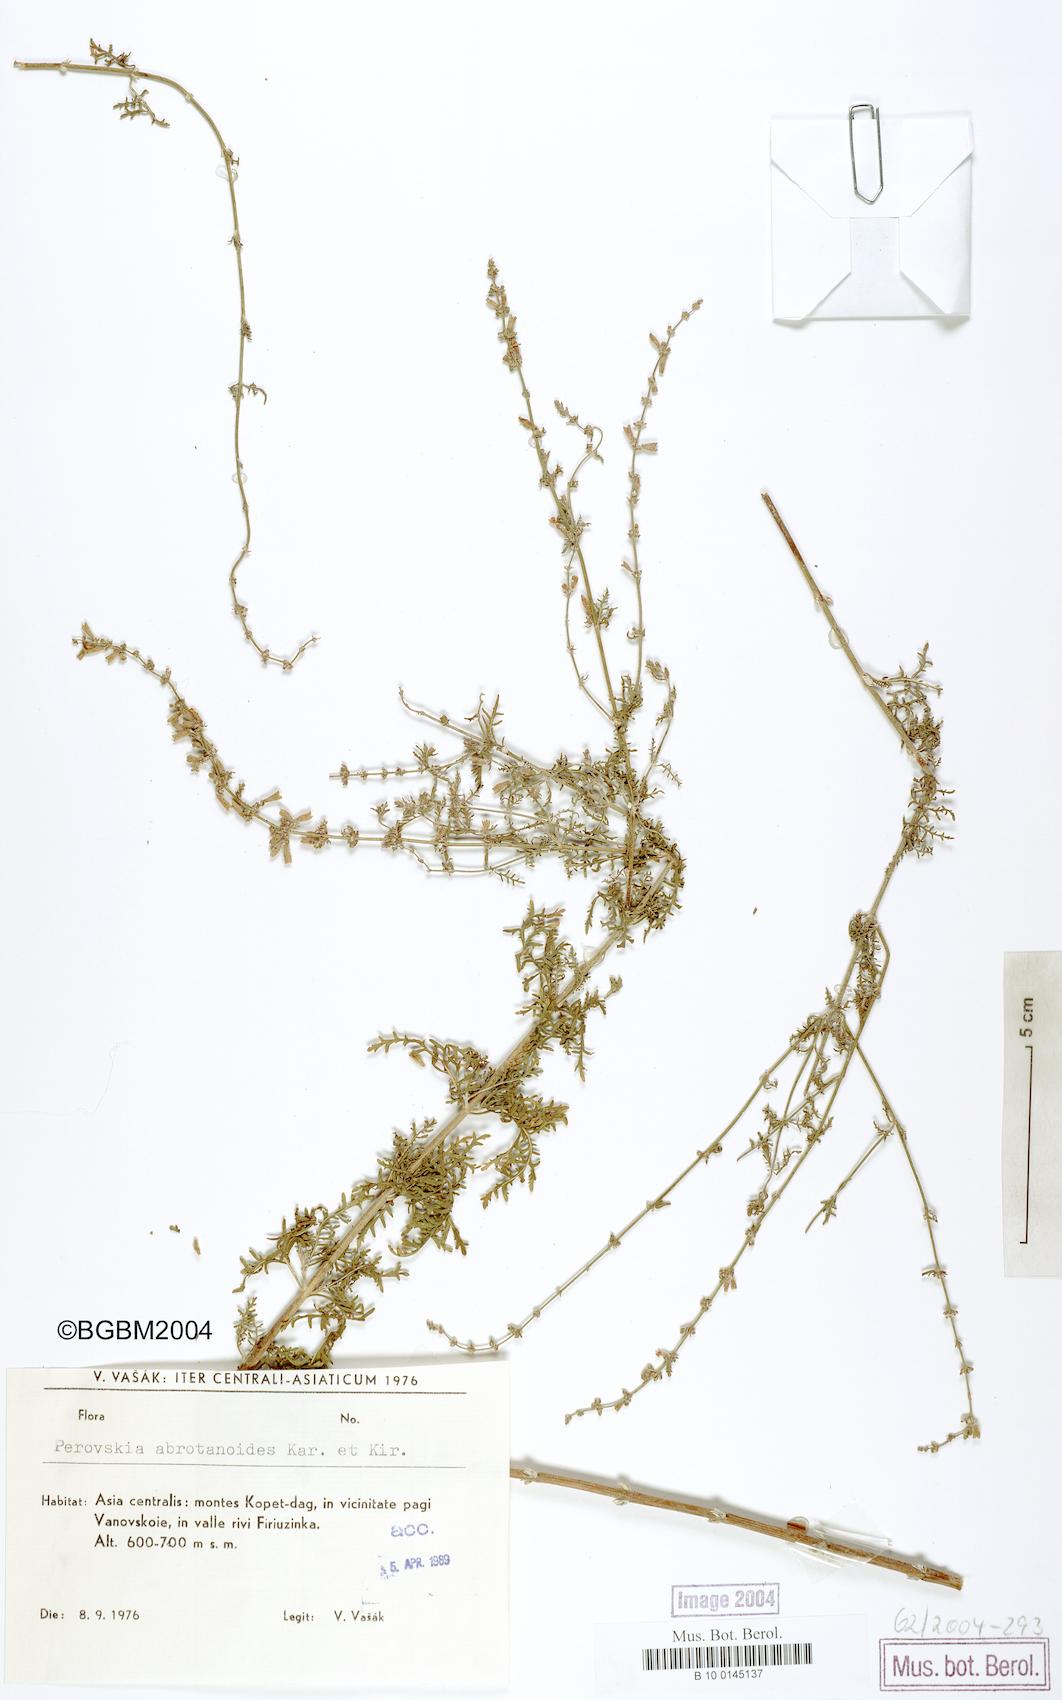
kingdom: Plantae
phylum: Tracheophyta
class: Magnoliopsida
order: Lamiales
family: Lamiaceae
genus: Salvia
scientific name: Salvia abrotanoides
